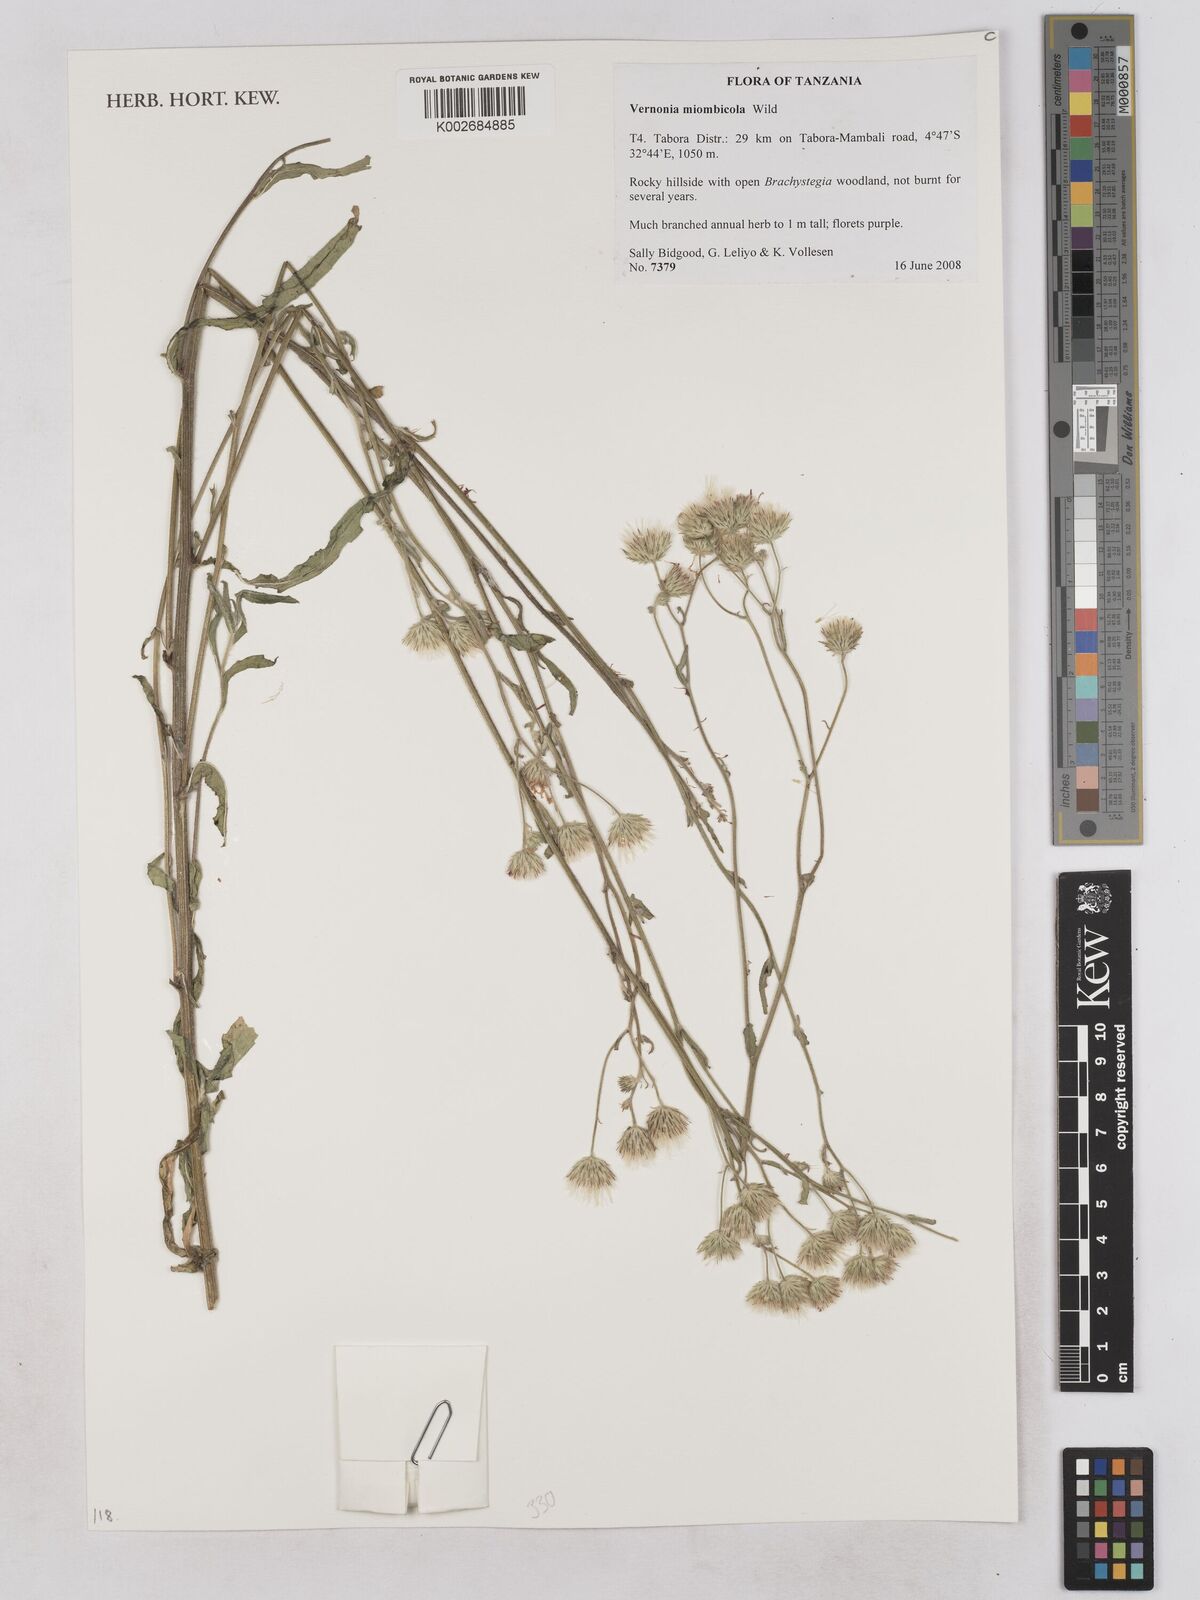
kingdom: Plantae
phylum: Tracheophyta
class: Magnoliopsida
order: Asterales
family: Asteraceae
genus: Vernonia
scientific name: Vernonia miombicola
